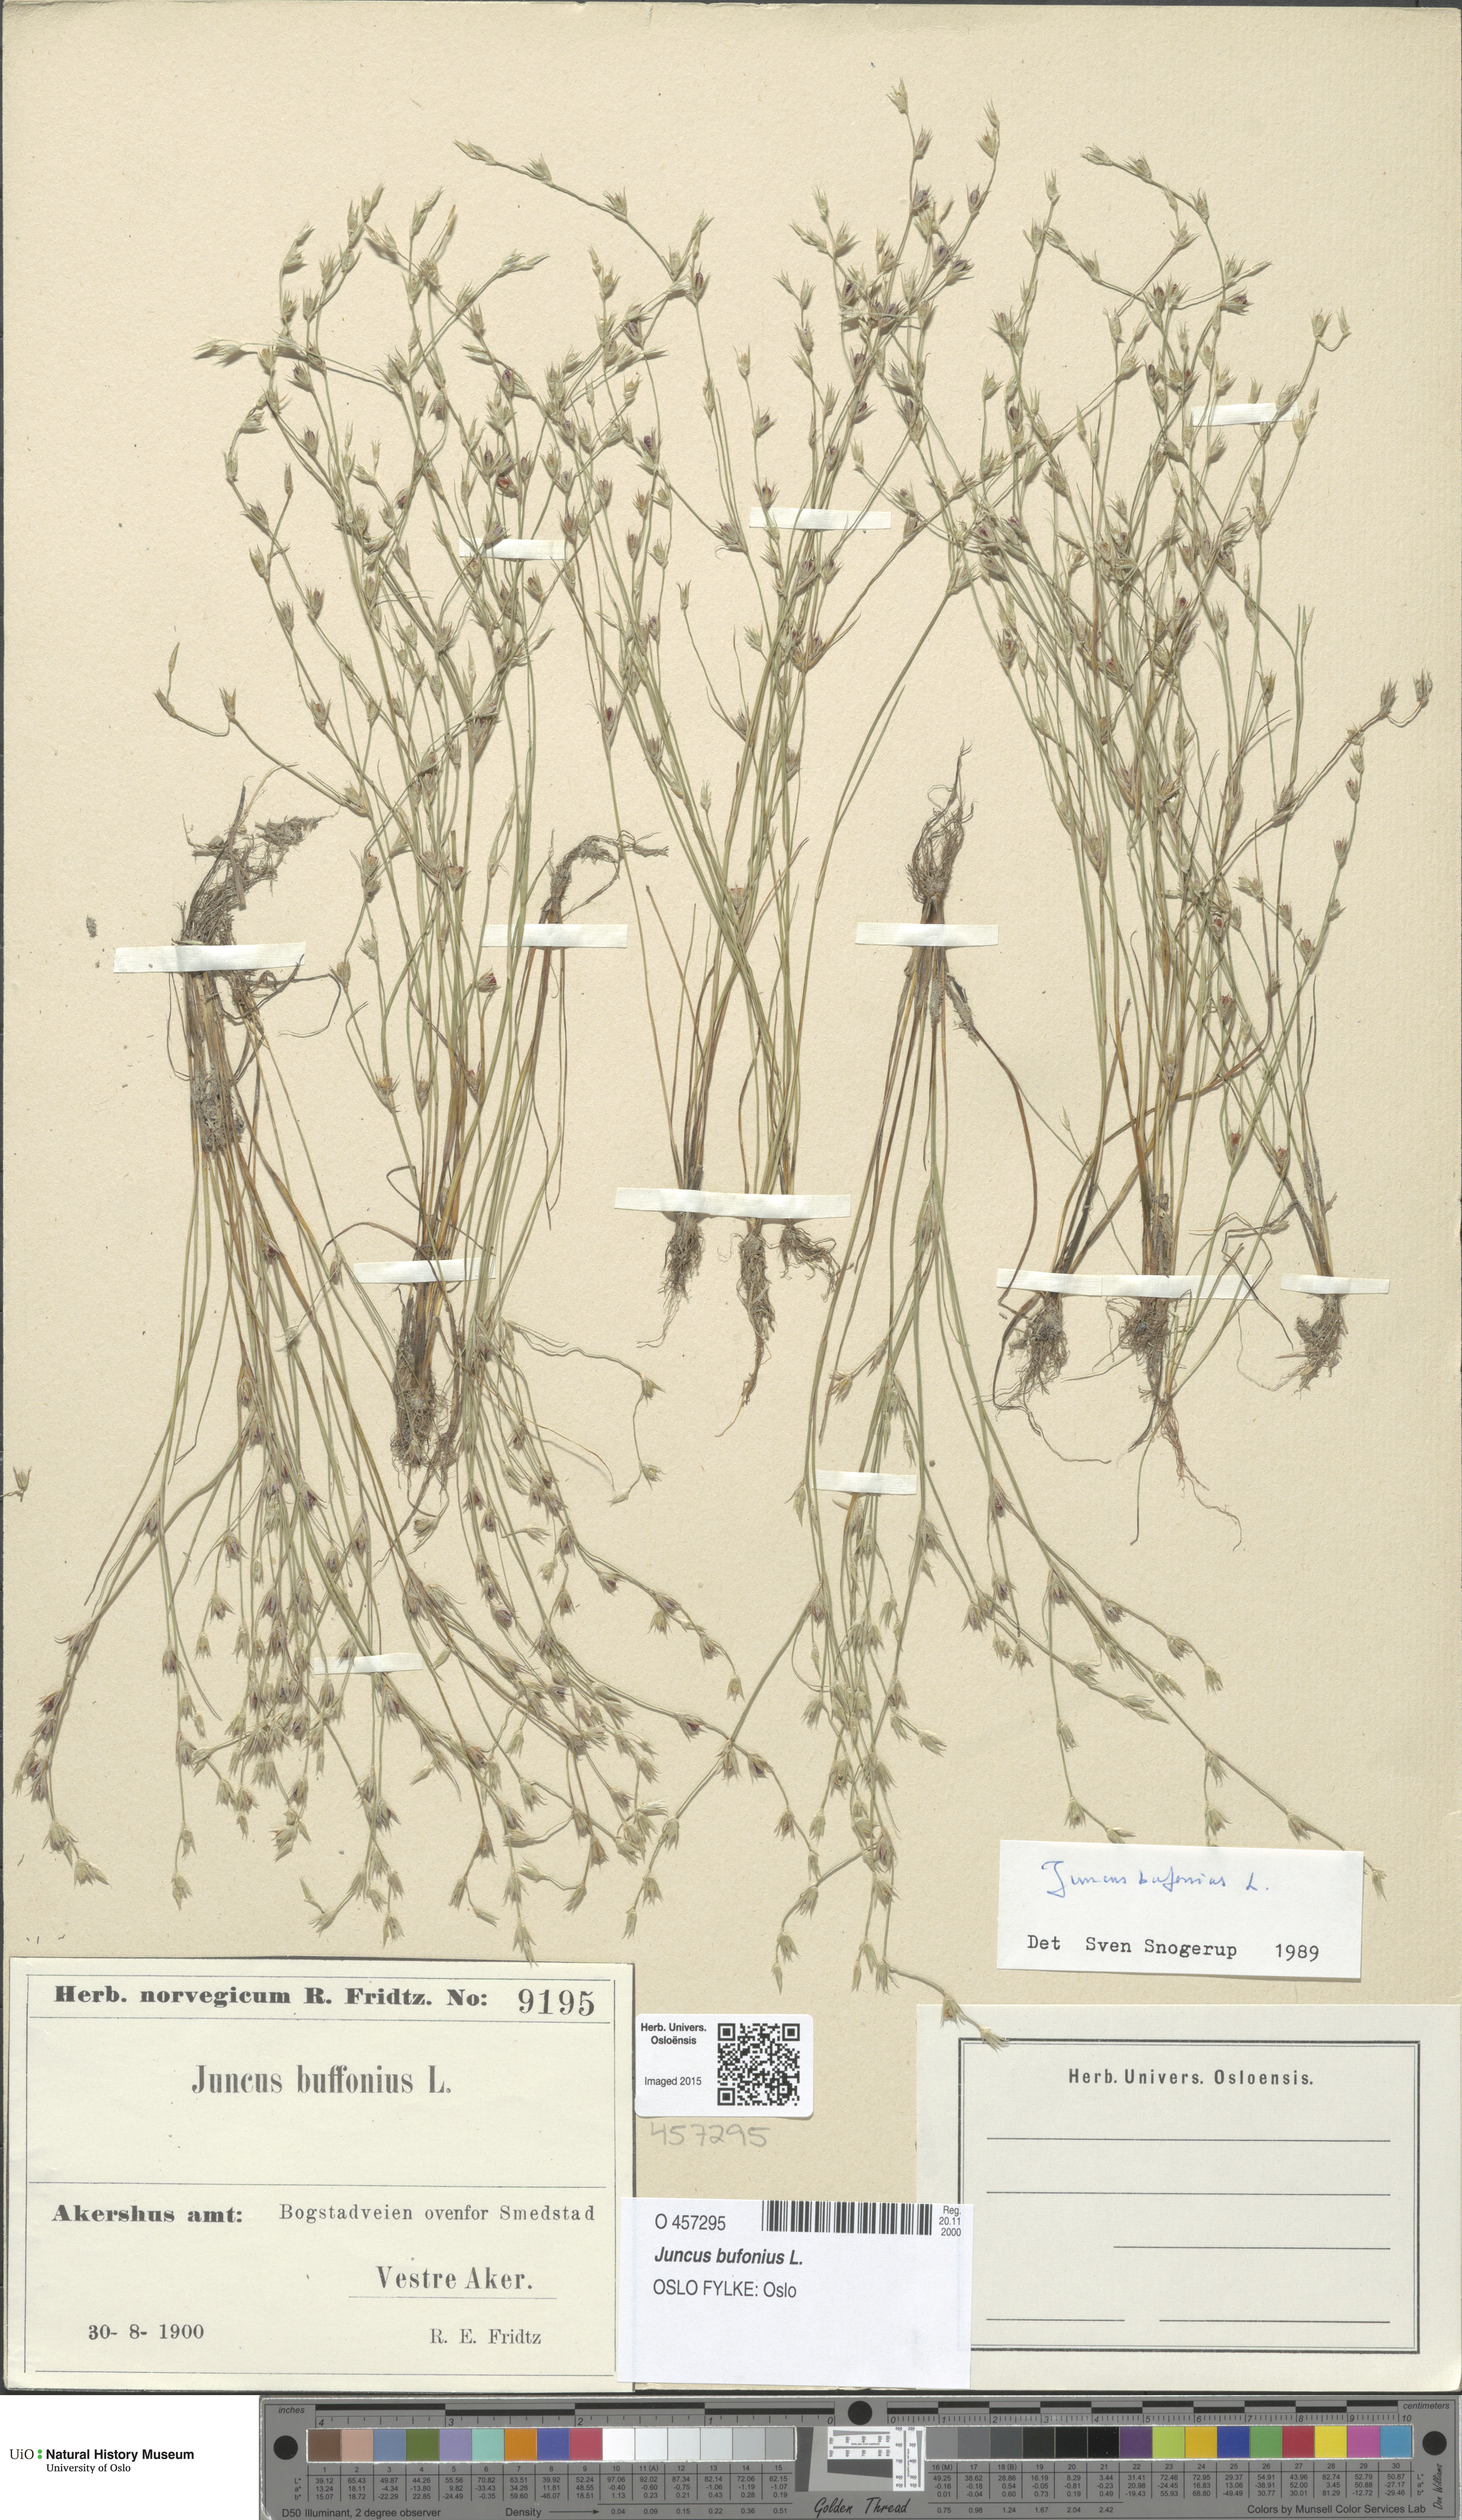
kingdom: Plantae
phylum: Tracheophyta
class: Liliopsida
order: Poales
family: Juncaceae
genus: Juncus
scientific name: Juncus bufonius
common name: Toad rush
